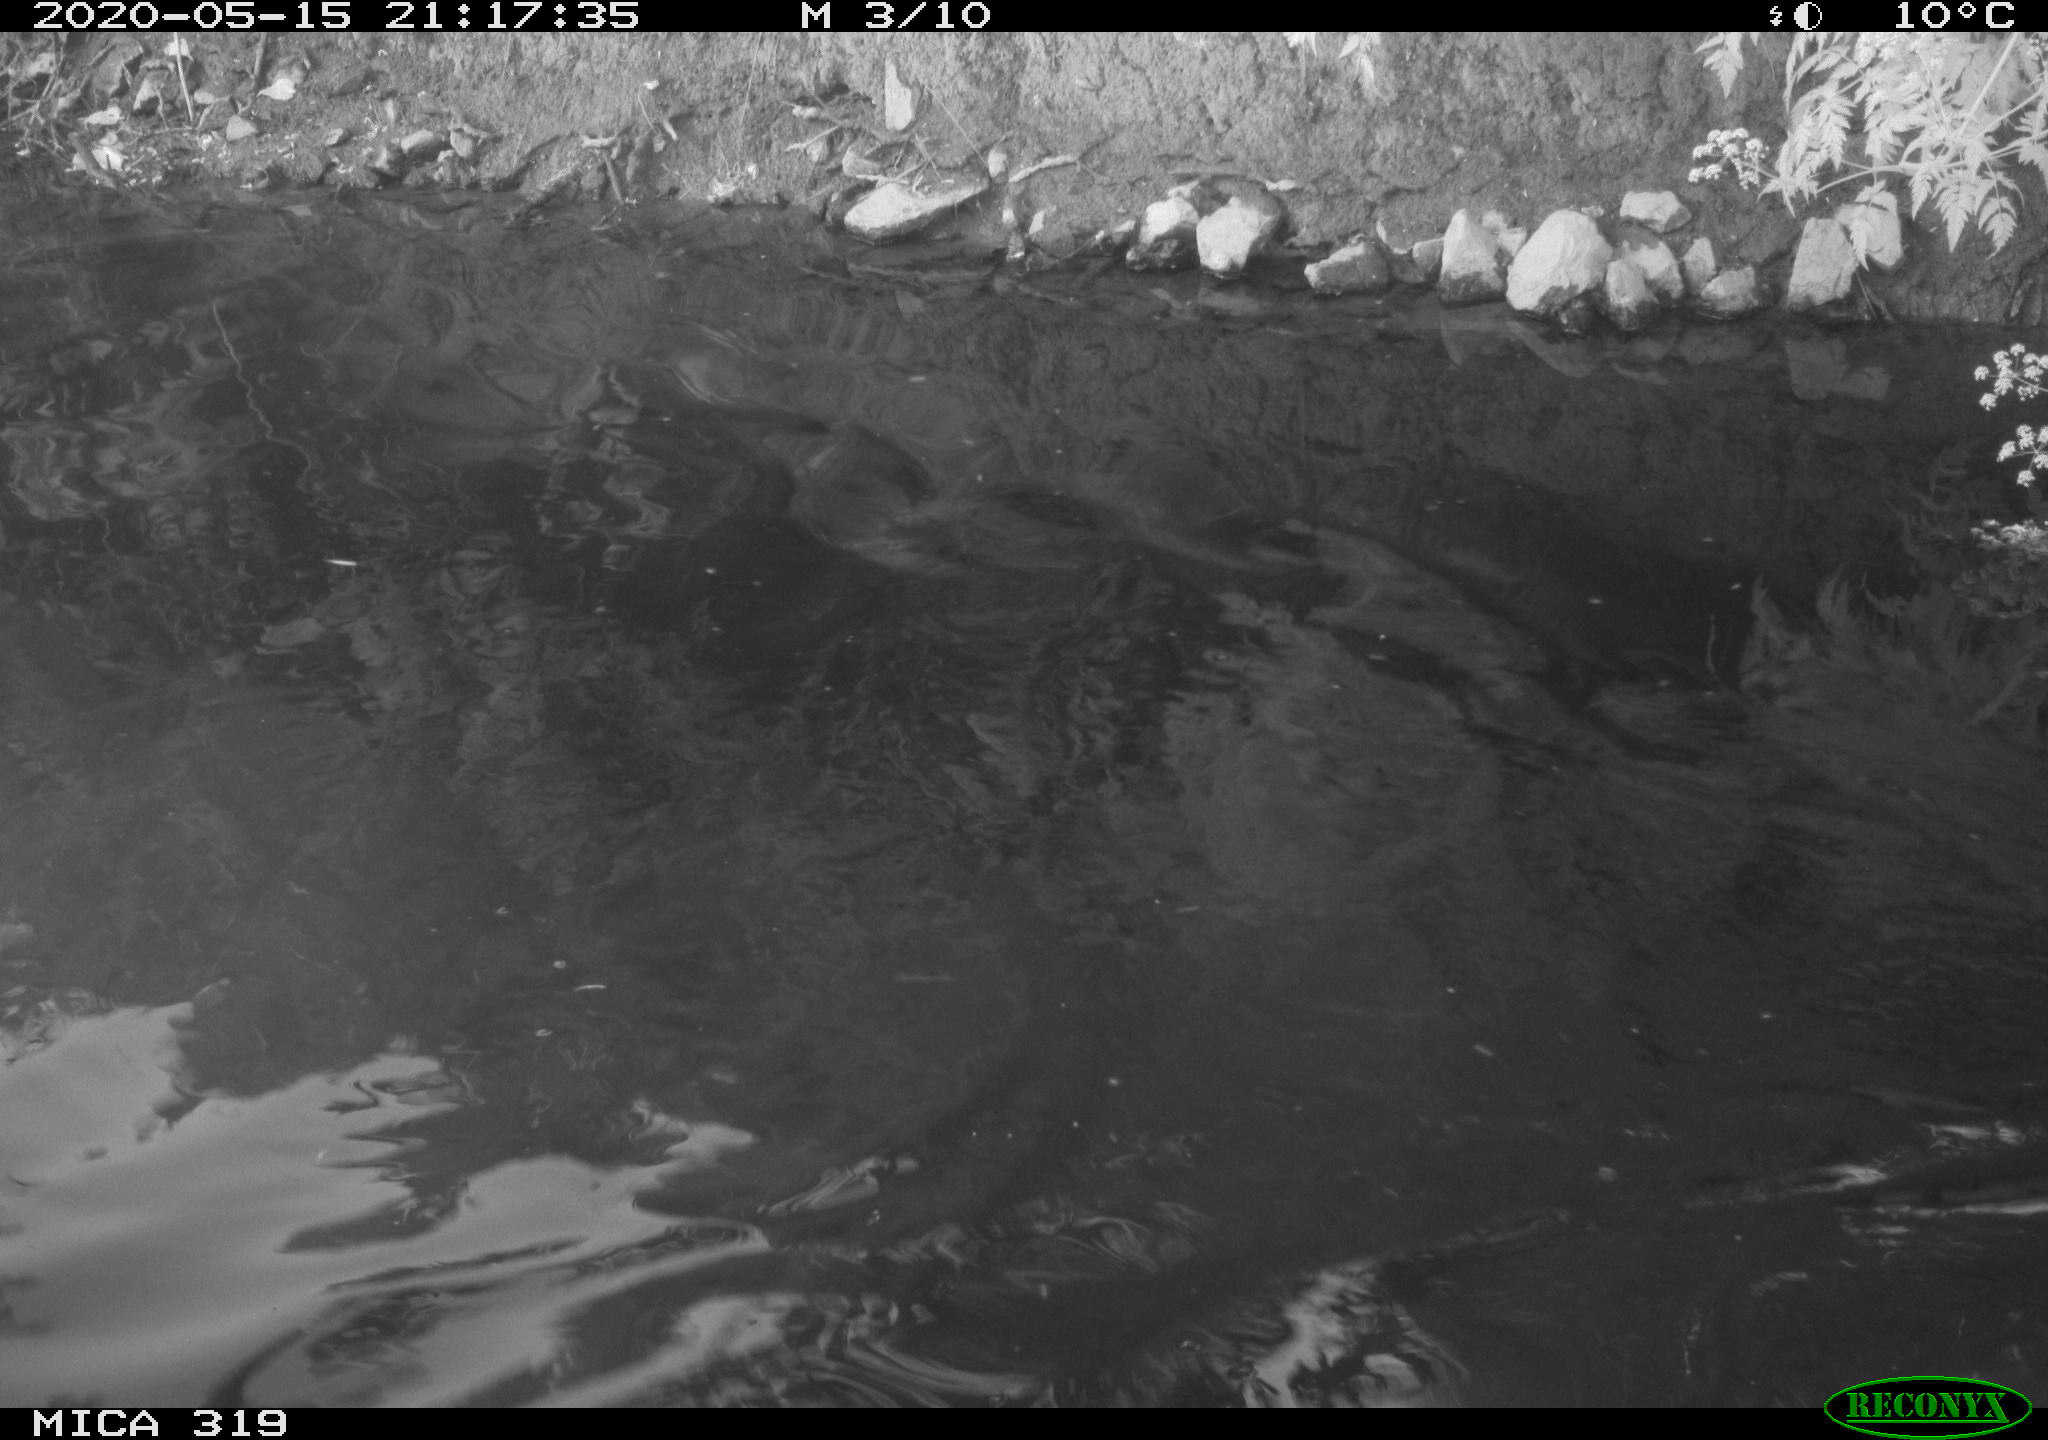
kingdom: Animalia
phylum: Chordata
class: Aves
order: Anseriformes
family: Anatidae
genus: Anas
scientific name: Anas platyrhynchos
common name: Mallard
